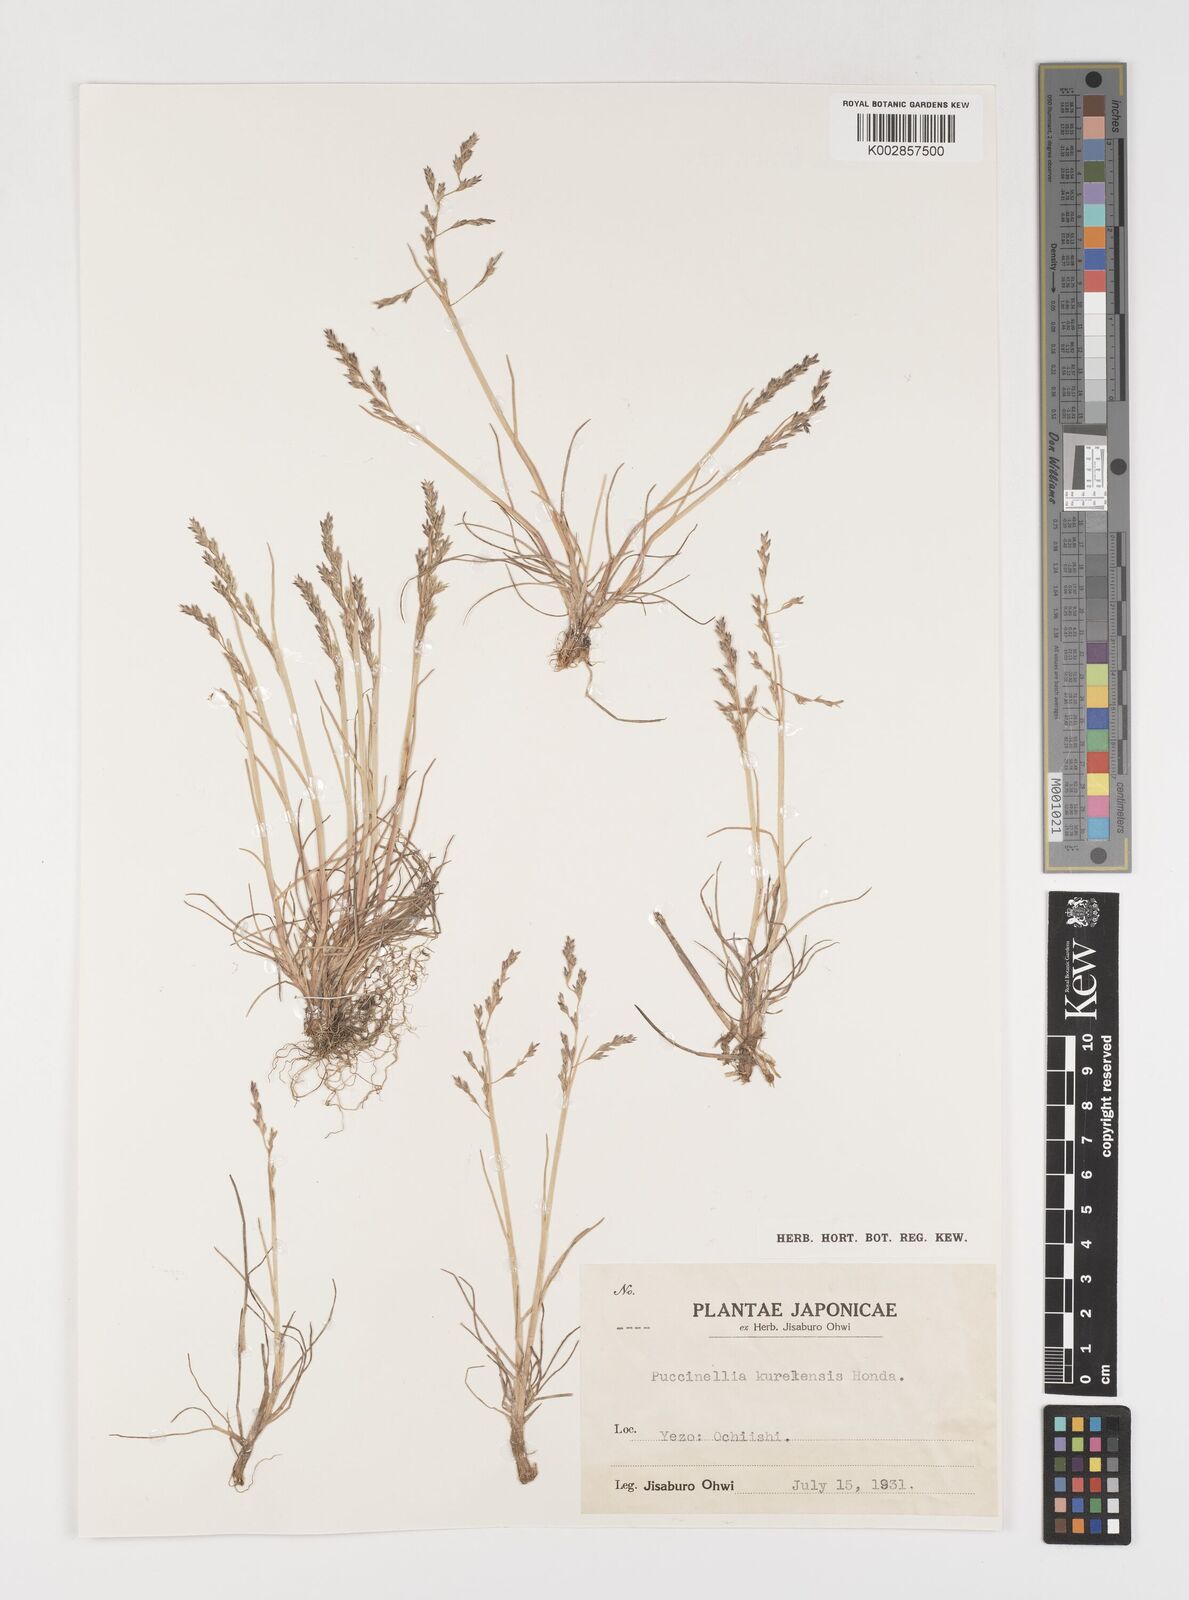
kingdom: Plantae
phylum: Tracheophyta
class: Liliopsida
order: Poales
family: Poaceae
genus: Puccinellia
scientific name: Puccinellia pumila
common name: Dwarf alkaligrass
